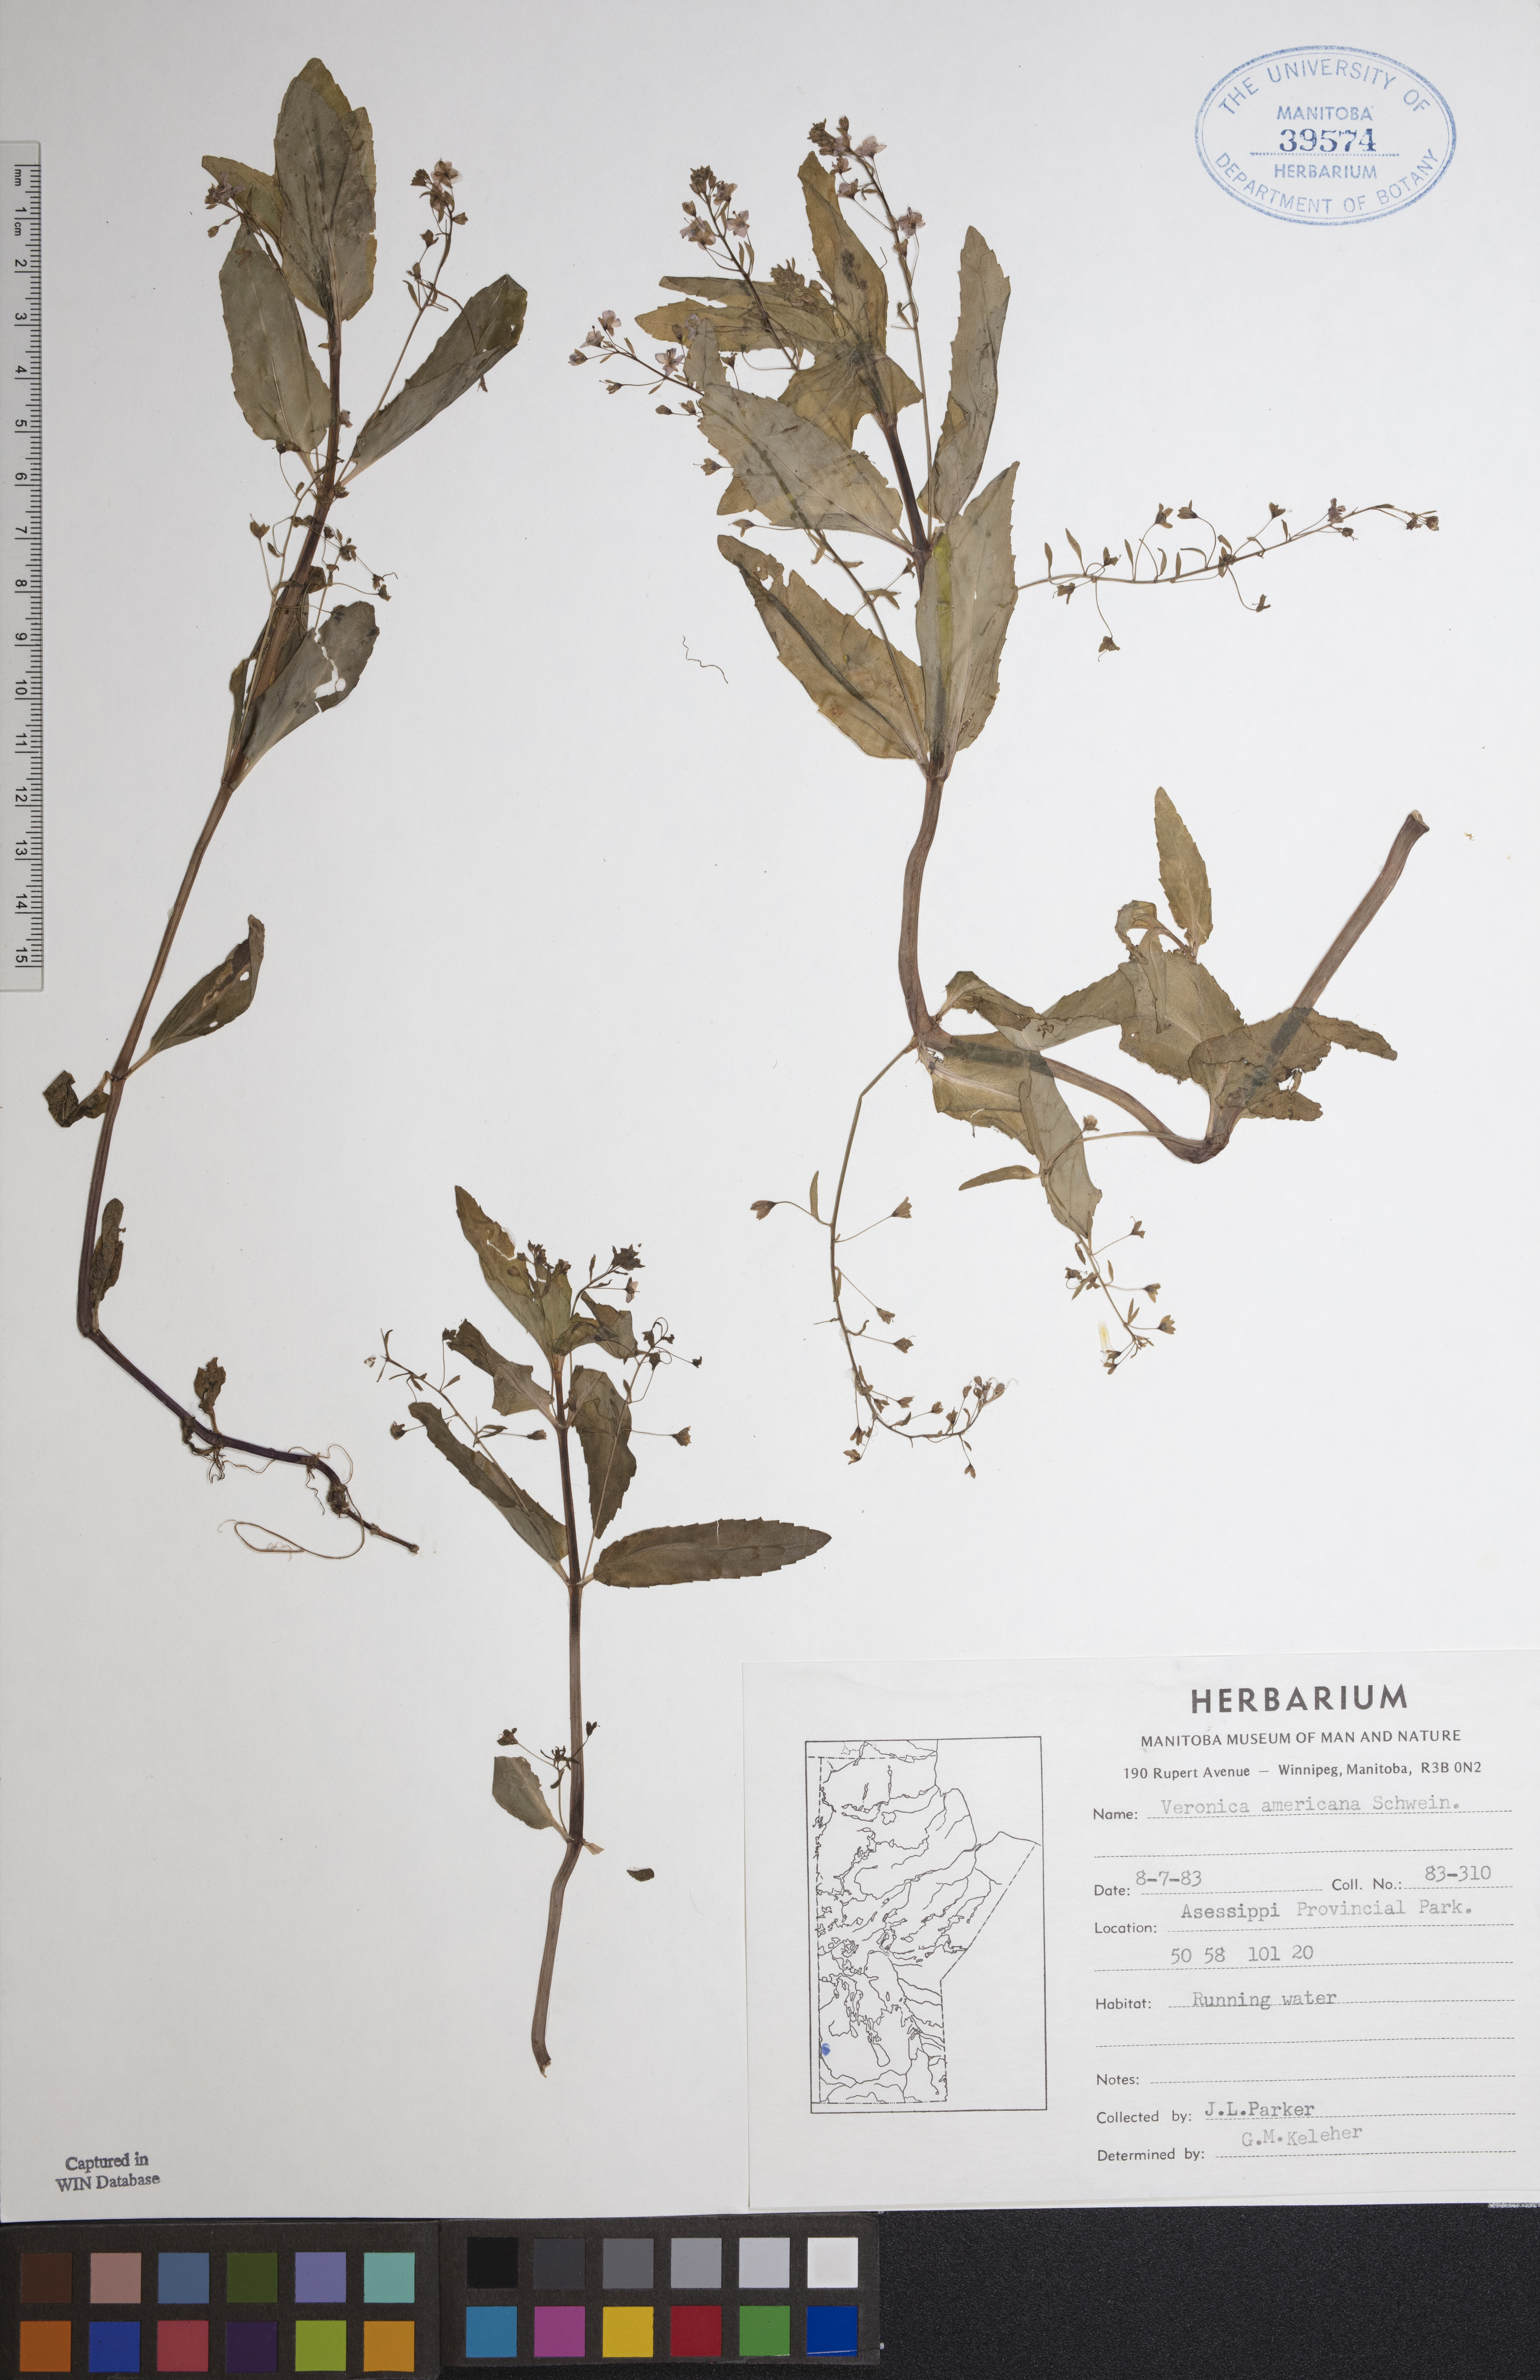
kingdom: Plantae
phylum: Tracheophyta
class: Magnoliopsida
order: Lamiales
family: Plantaginaceae
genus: Veronica
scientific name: Veronica americana
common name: American brooklime
